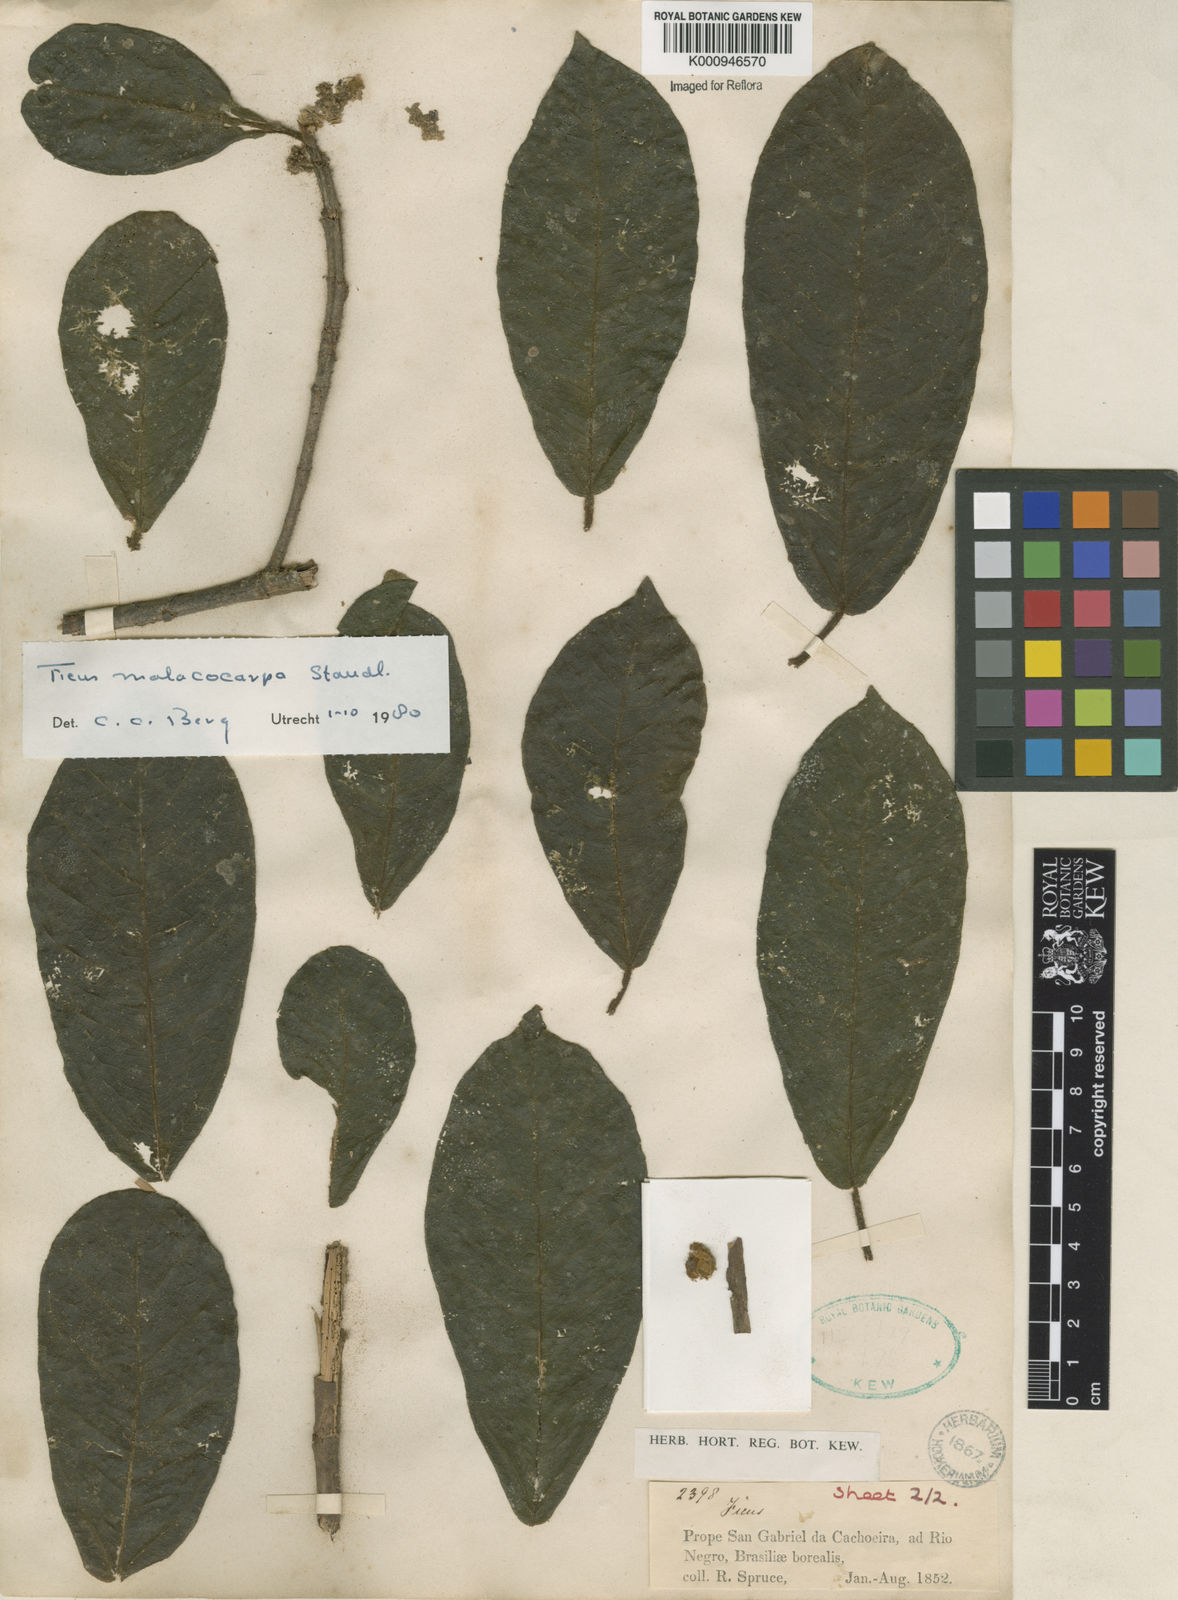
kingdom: Plantae
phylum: Tracheophyta
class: Magnoliopsida
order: Rosales
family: Moraceae
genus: Ficus
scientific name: Ficus popenoei
